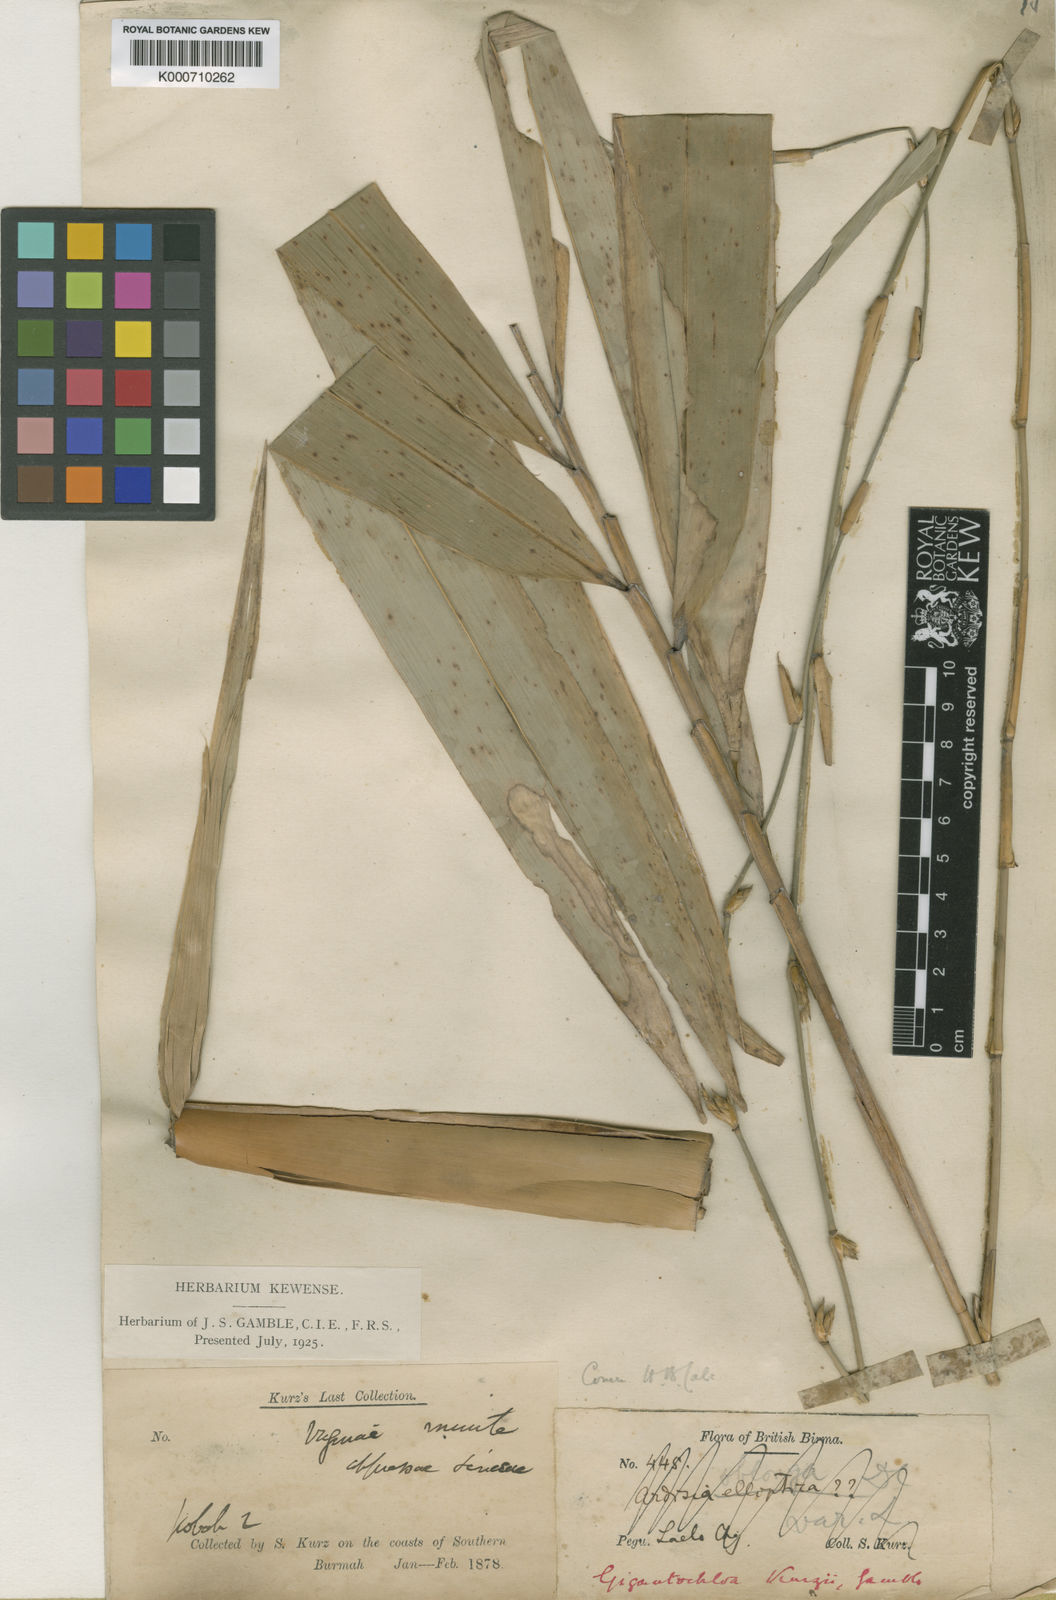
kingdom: Plantae
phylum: Tracheophyta
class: Liliopsida
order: Poales
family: Poaceae
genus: Gigantochloa
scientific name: Gigantochloa apus
